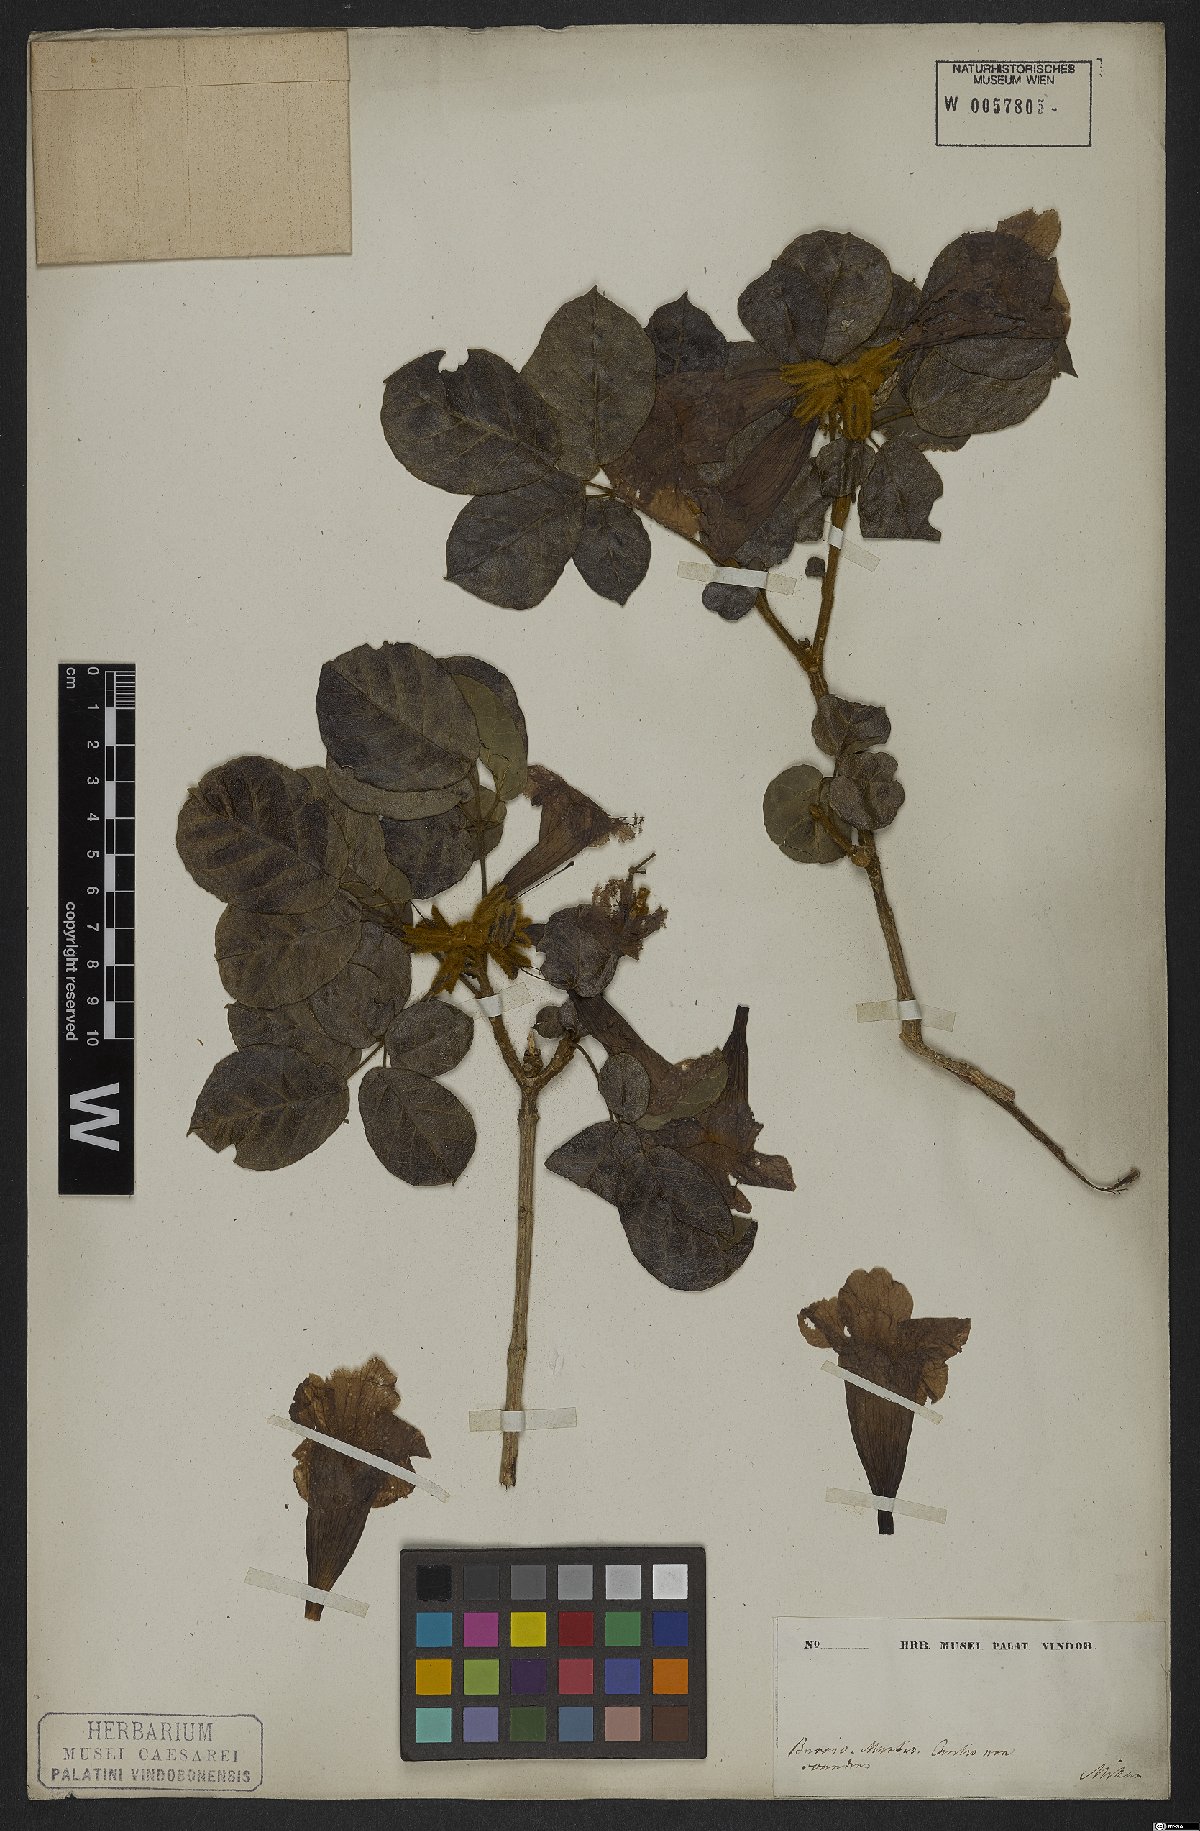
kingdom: Plantae
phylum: Tracheophyta
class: Magnoliopsida
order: Lamiales
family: Bignoniaceae
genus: Handroanthus
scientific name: Handroanthus chrysotrichus
